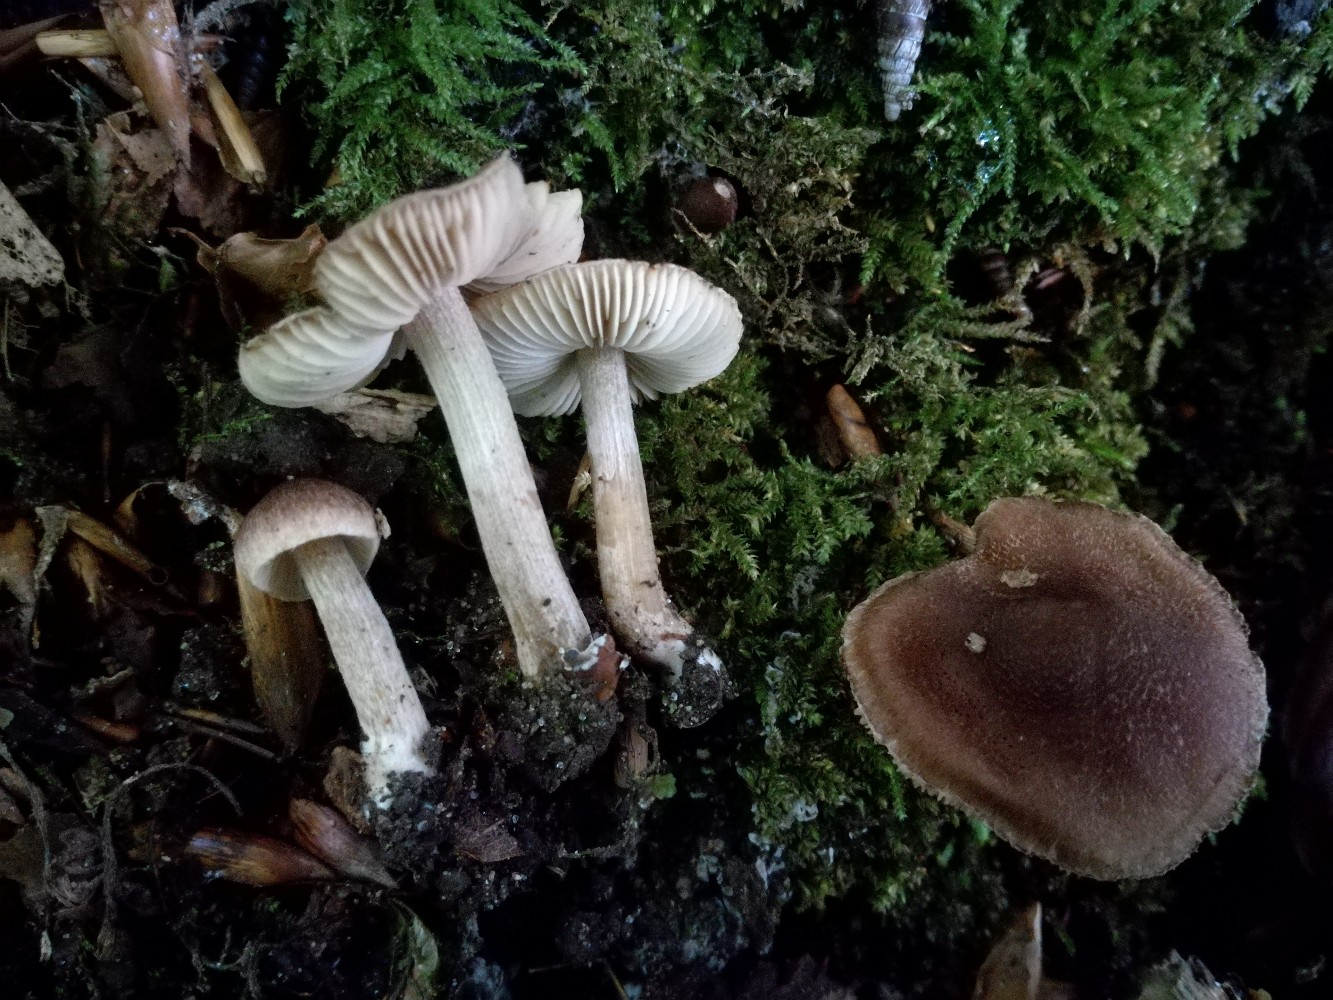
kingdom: Fungi
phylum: Basidiomycota
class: Agaricomycetes
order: Agaricales
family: Inocybaceae
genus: Inocybe
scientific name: Inocybe obscurobadia
